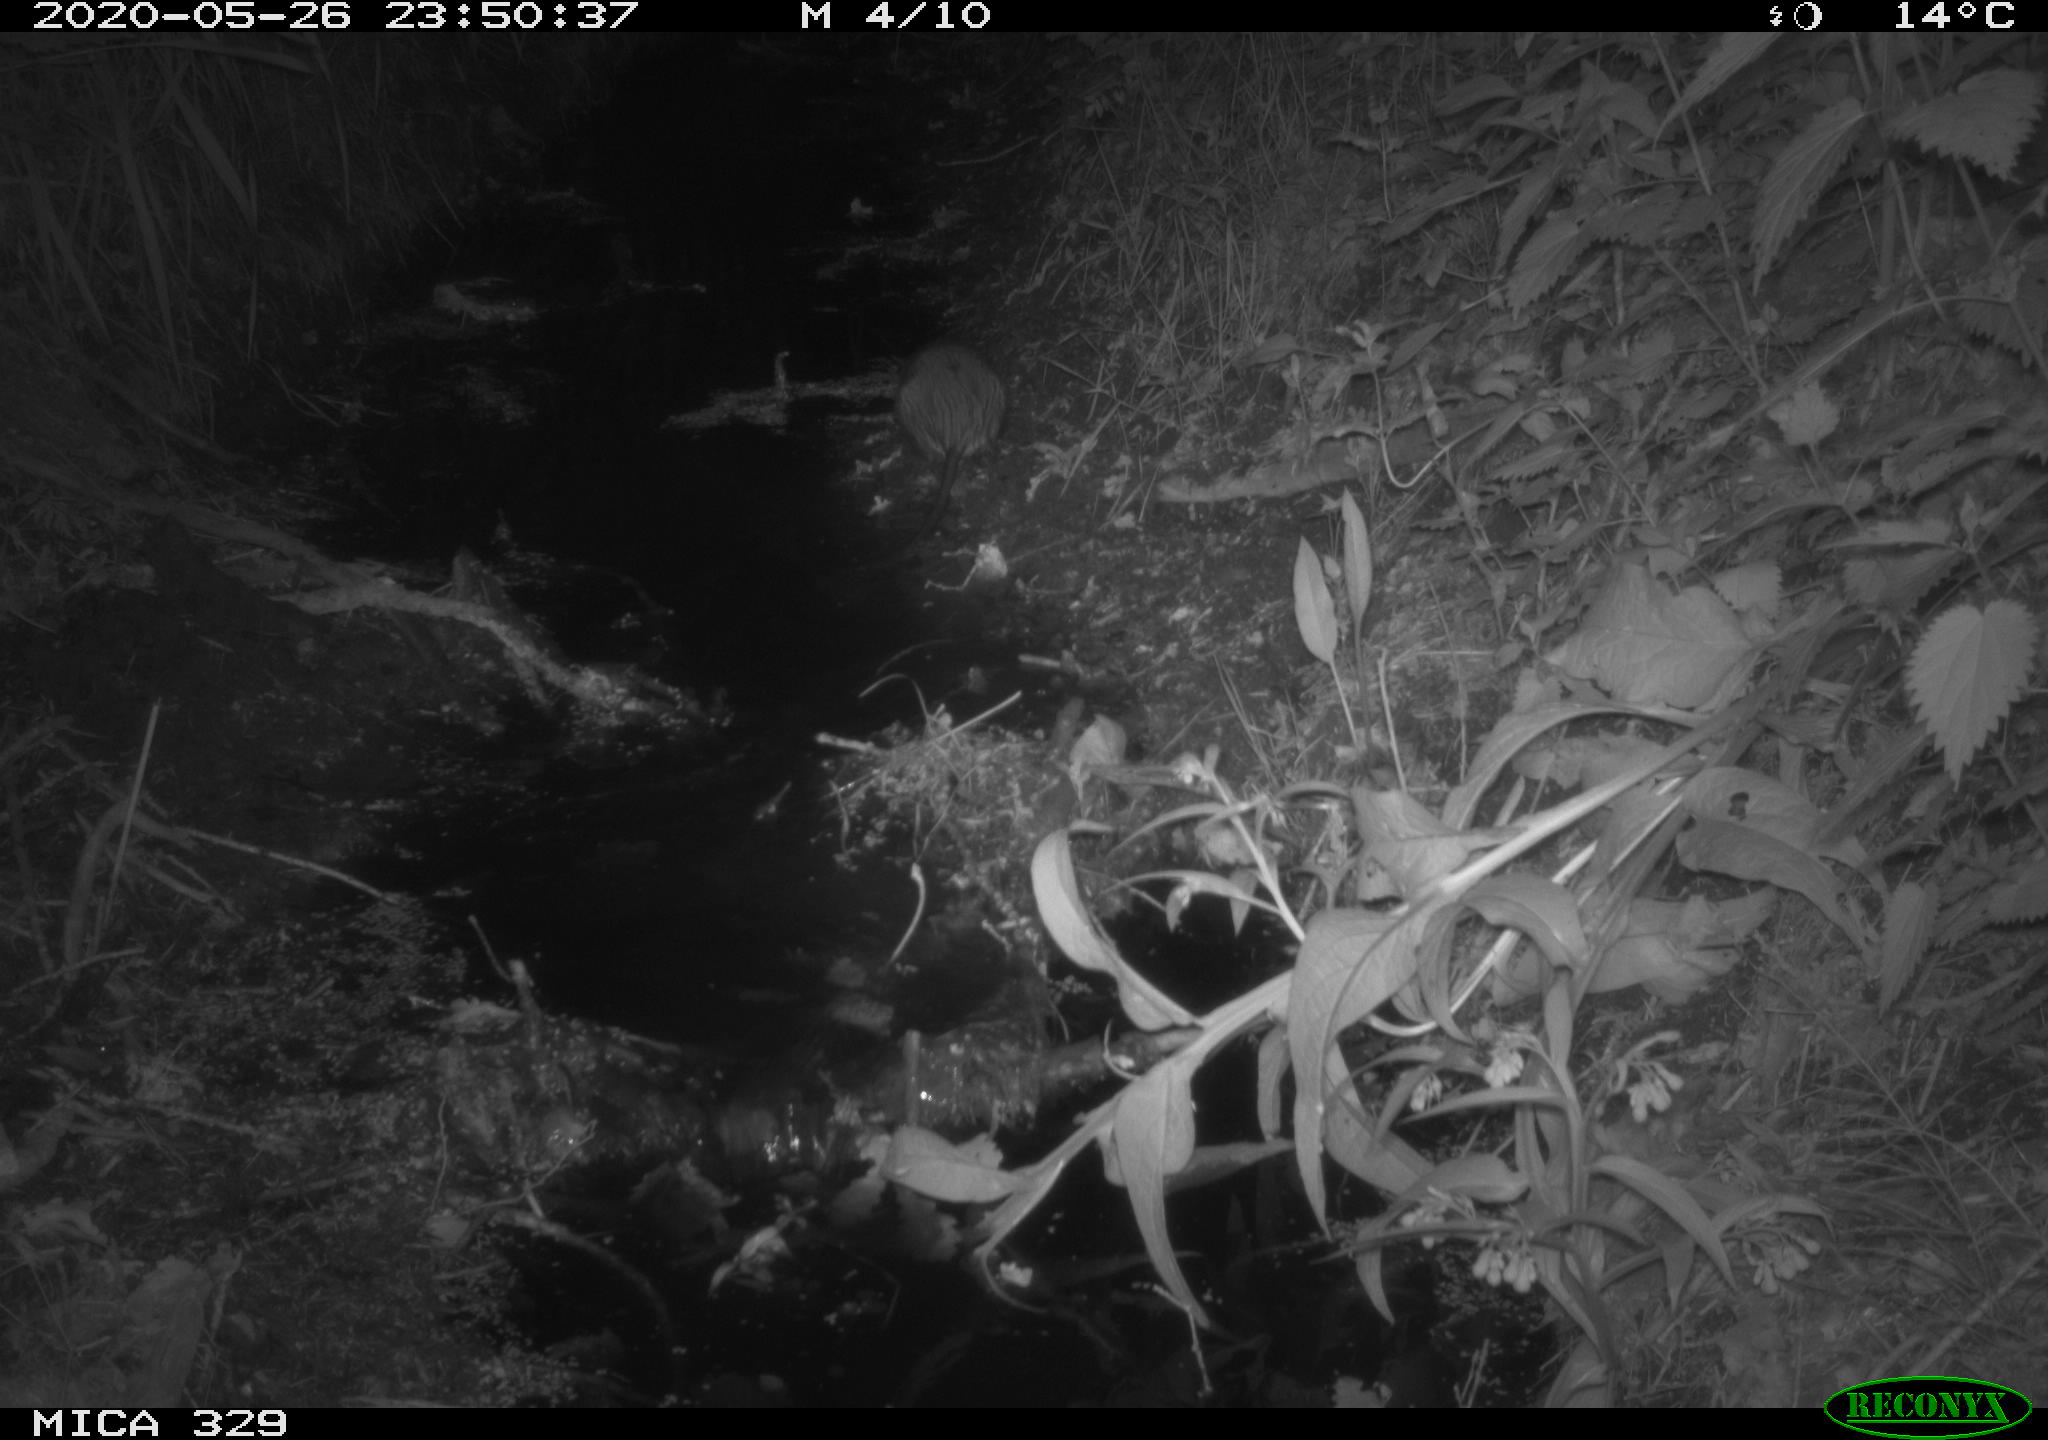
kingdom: Animalia
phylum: Chordata
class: Mammalia
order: Rodentia
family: Cricetidae
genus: Ondatra
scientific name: Ondatra zibethicus
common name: Muskrat
